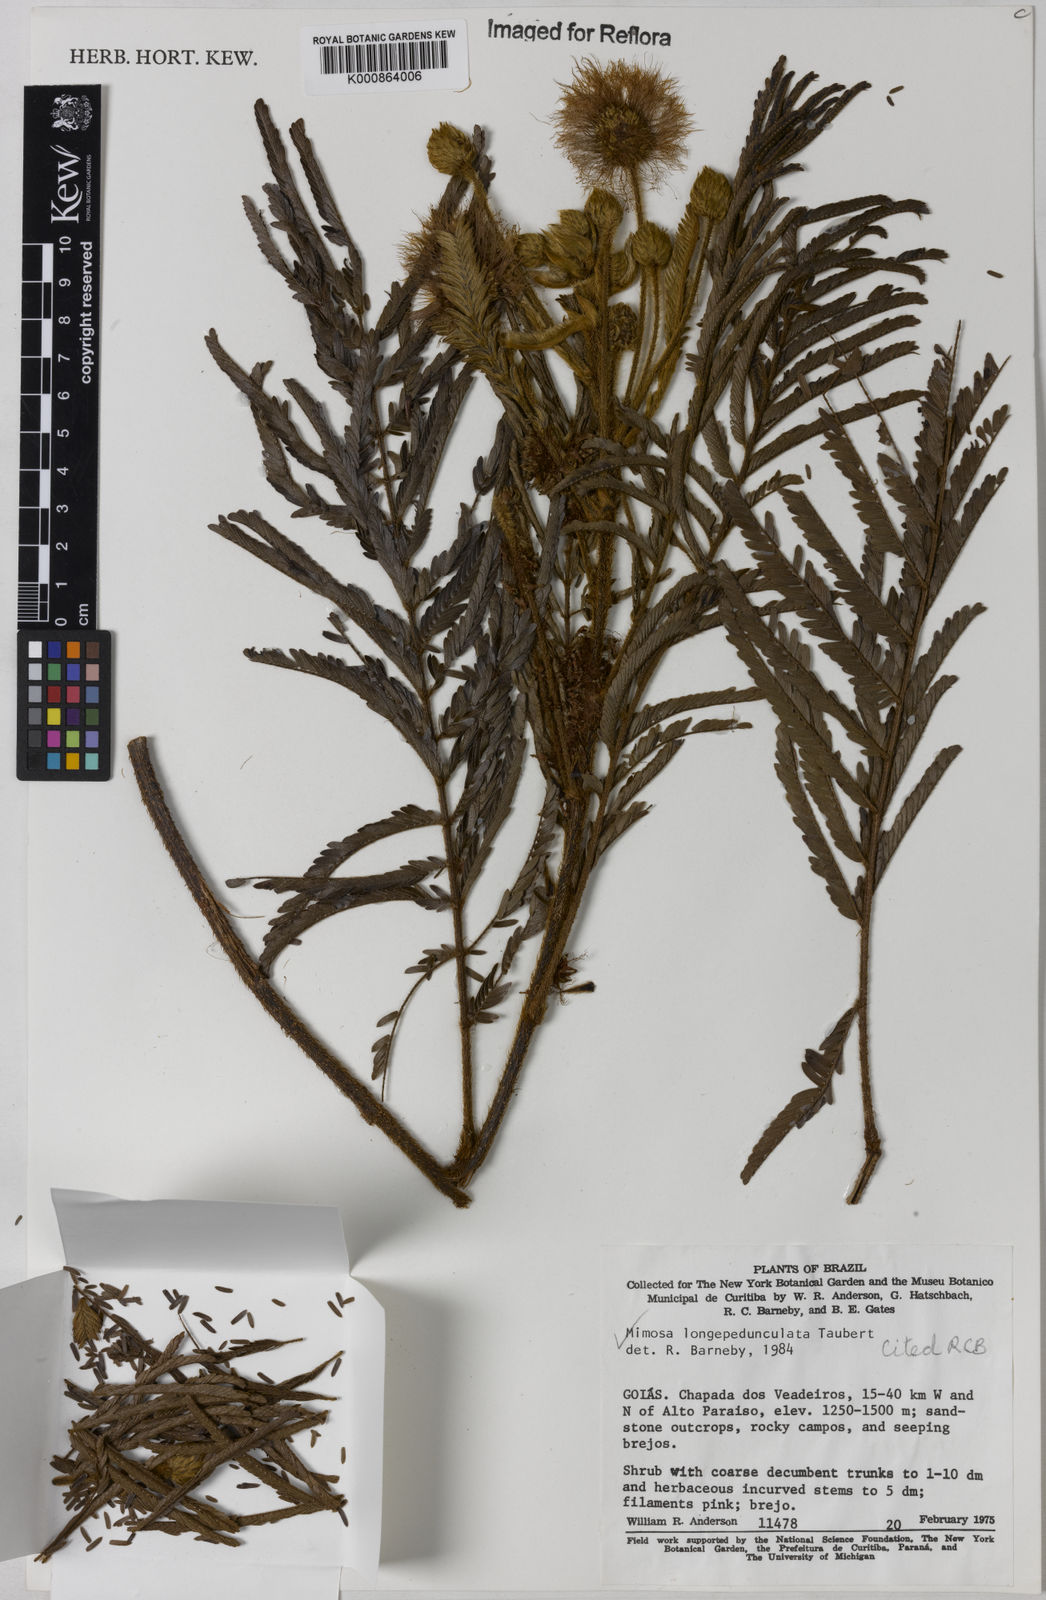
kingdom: Plantae
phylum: Tracheophyta
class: Magnoliopsida
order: Fabales
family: Fabaceae
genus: Mimosa
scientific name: Mimosa tocantina
